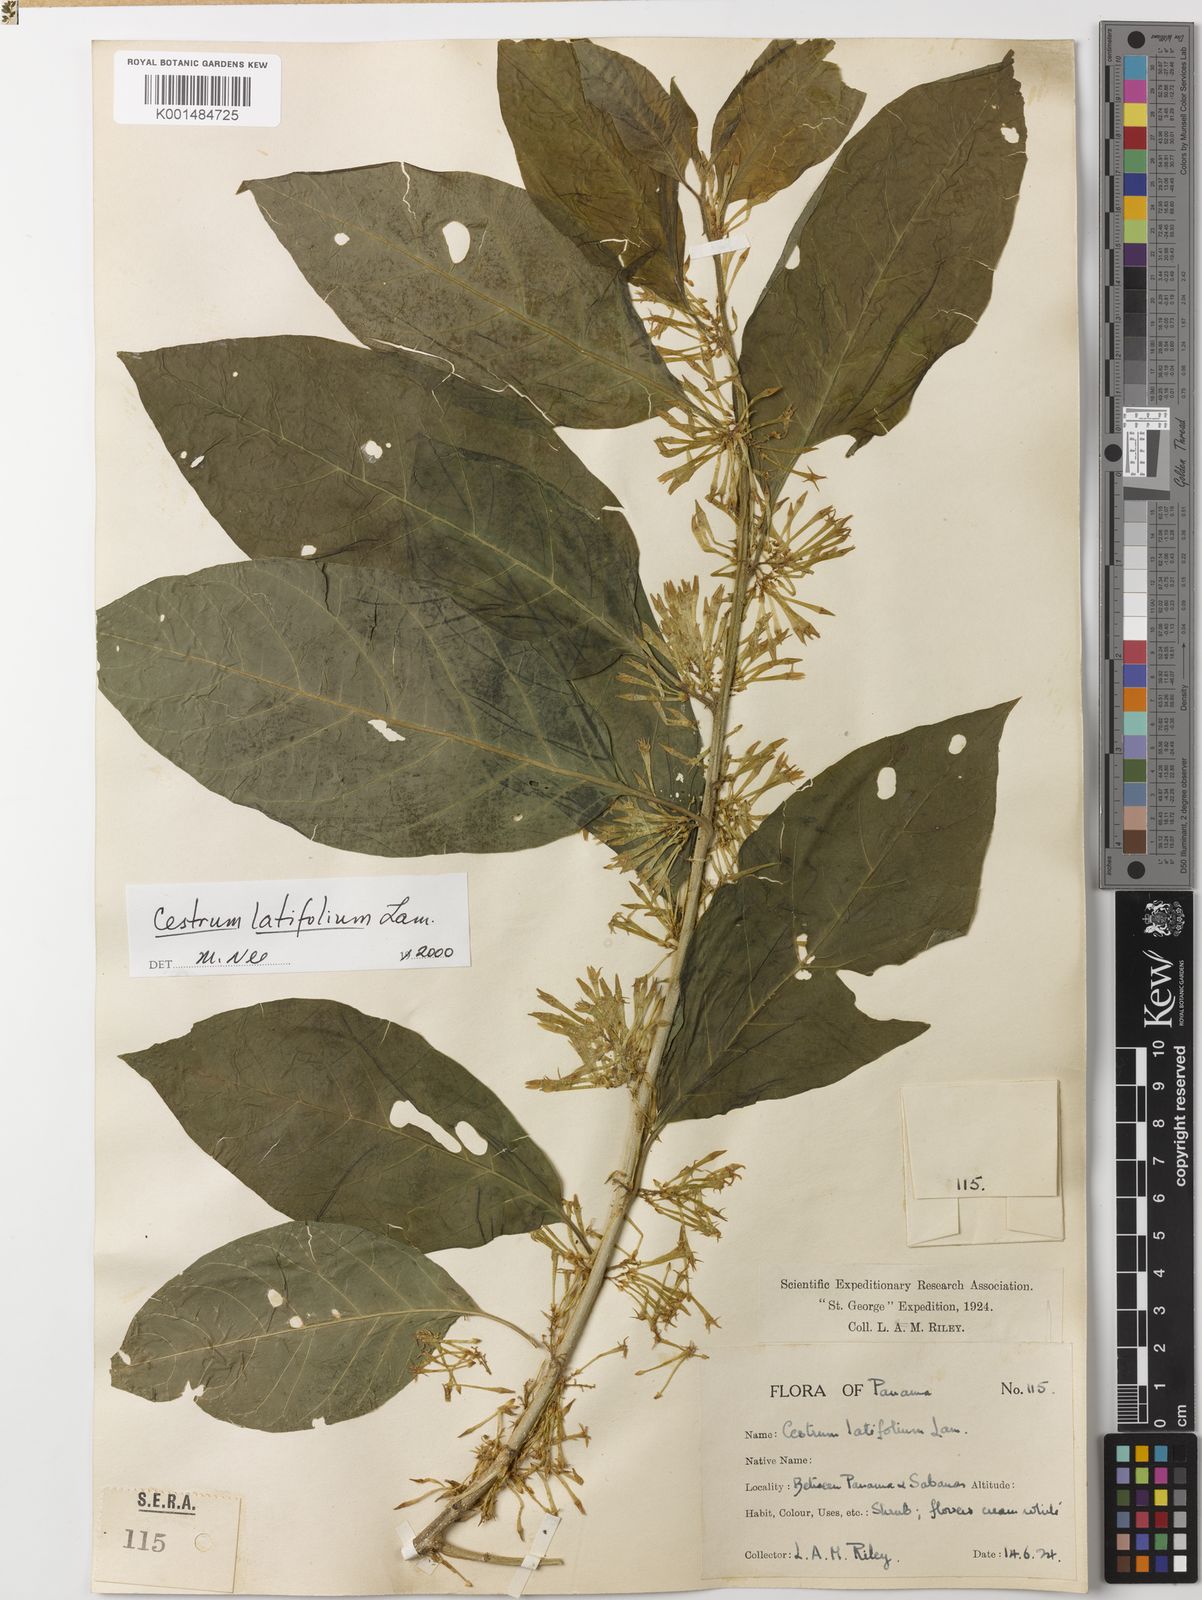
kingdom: Plantae
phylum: Tracheophyta
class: Magnoliopsida
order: Solanales
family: Solanaceae
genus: Cestrum
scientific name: Cestrum latifolium
